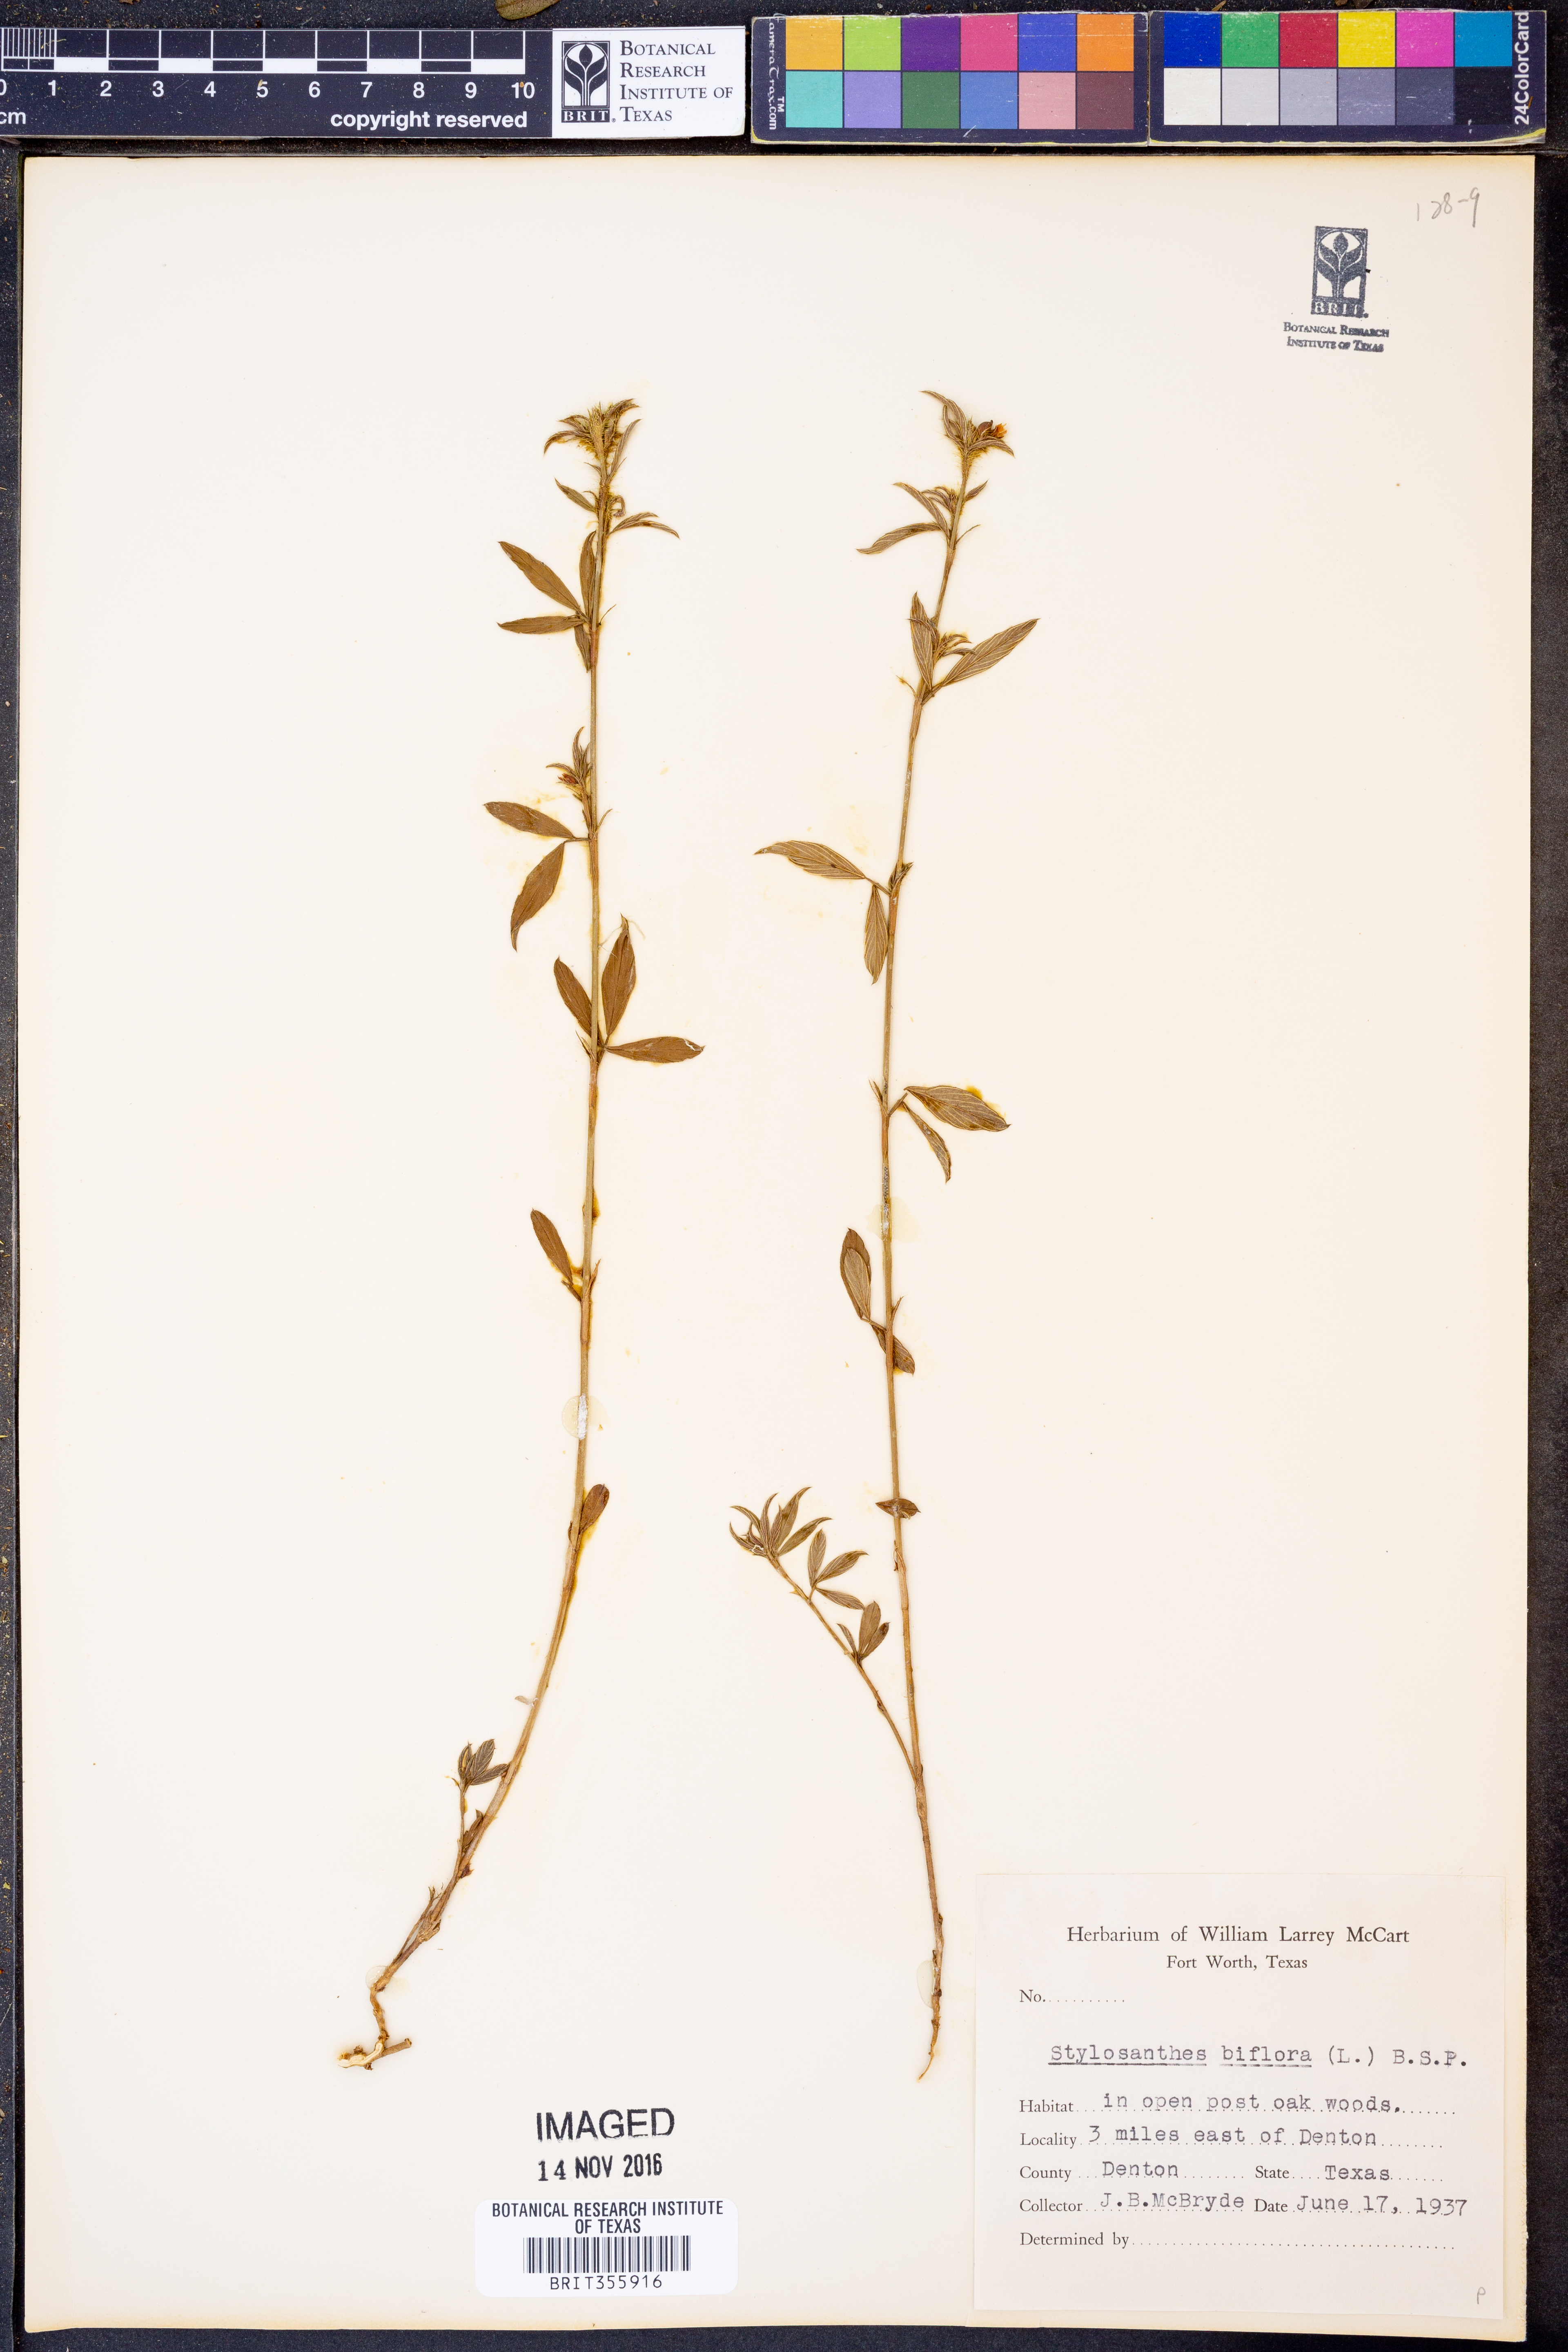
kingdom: Plantae
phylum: Tracheophyta
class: Magnoliopsida
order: Fabales
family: Fabaceae
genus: Stylosanthes
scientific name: Stylosanthes biflora
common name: Two-flower pencil-flower
